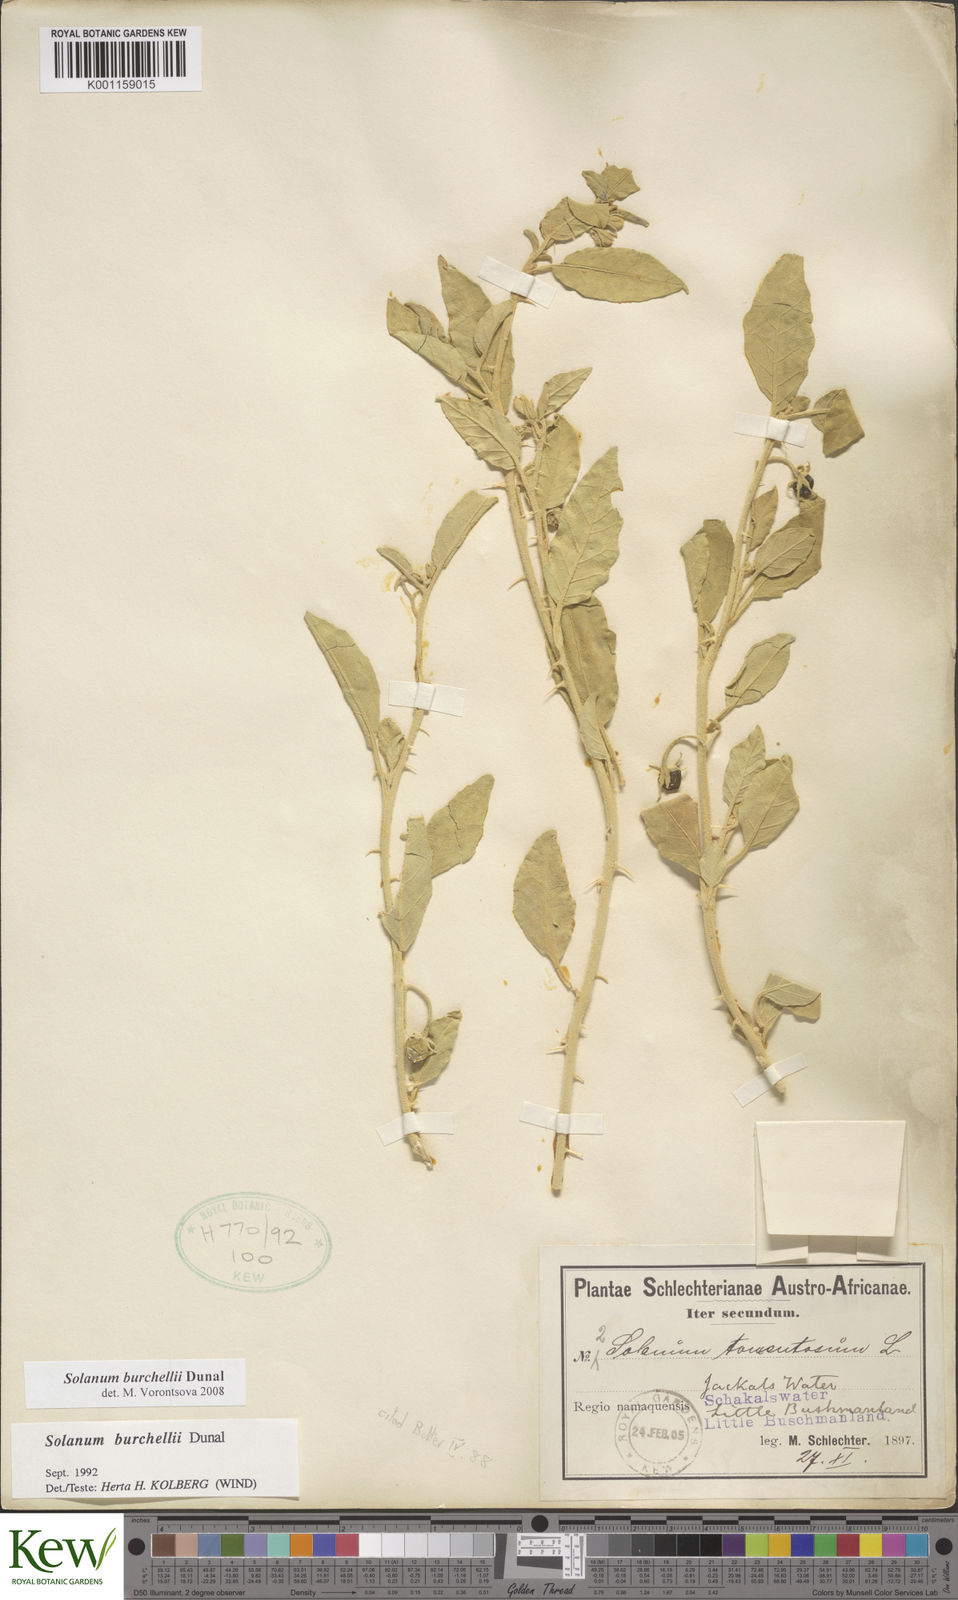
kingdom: Plantae
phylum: Tracheophyta
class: Magnoliopsida
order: Solanales
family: Solanaceae
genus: Solanum
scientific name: Solanum burchellii
